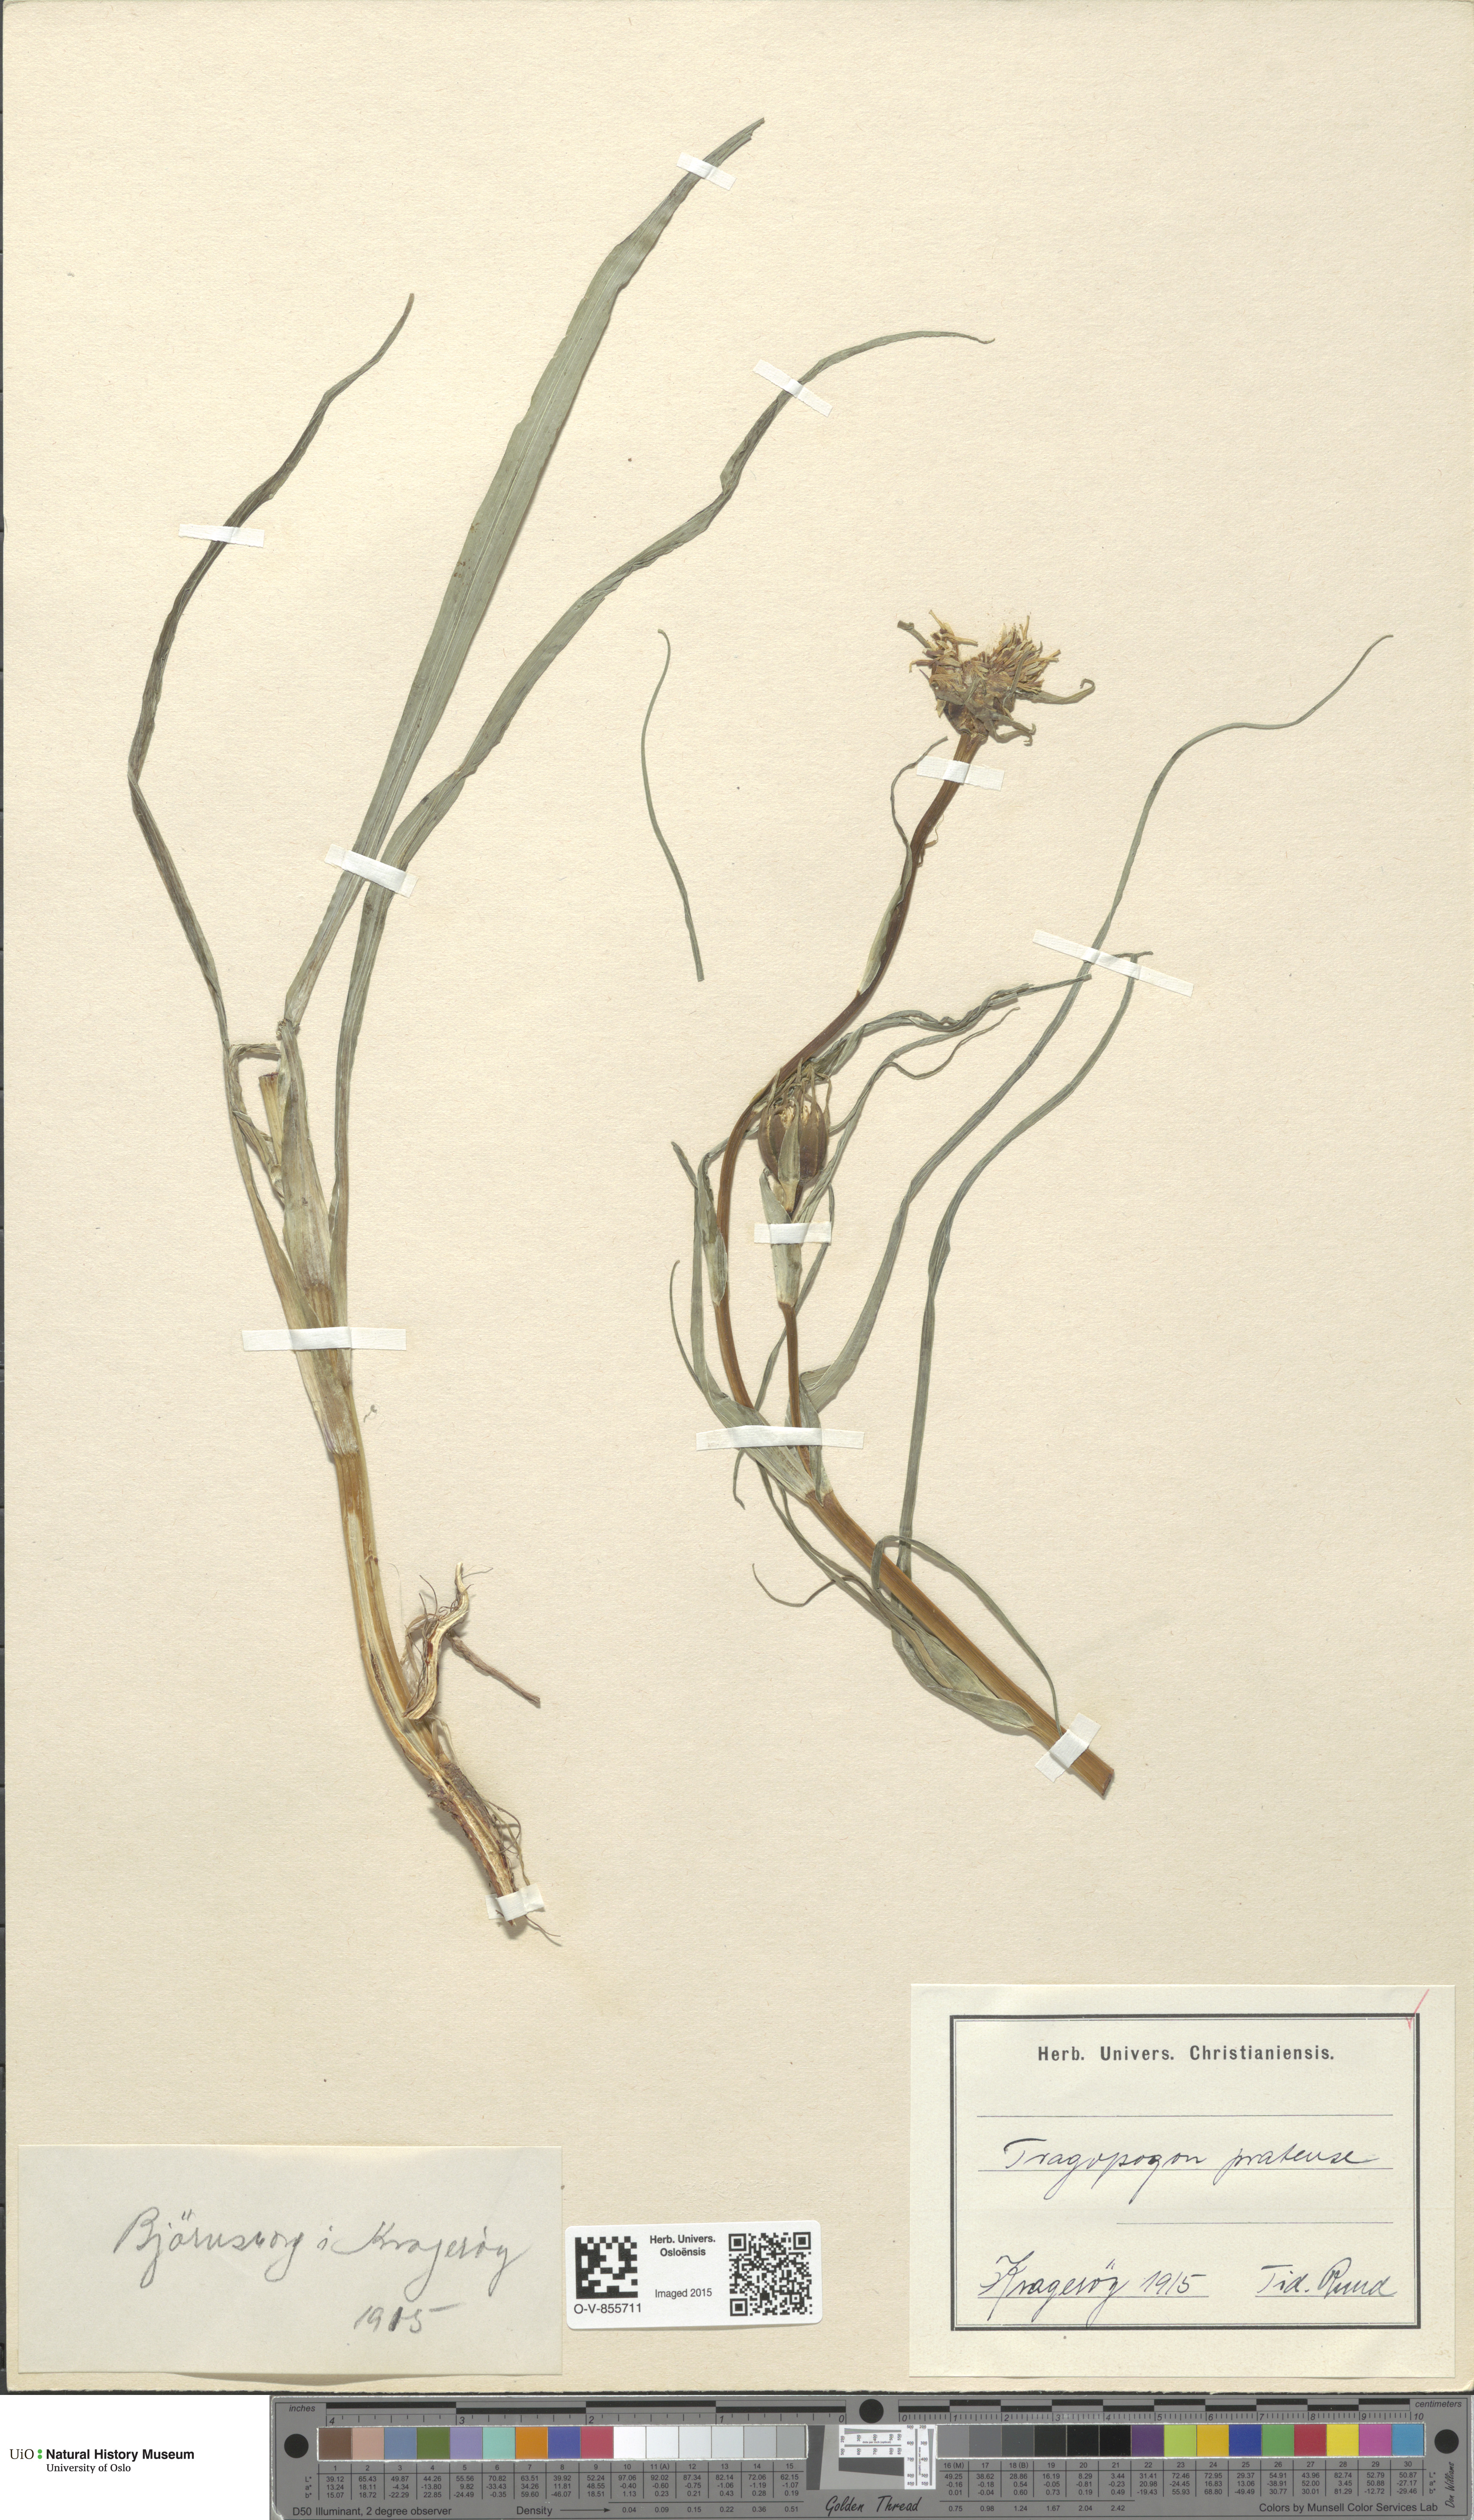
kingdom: Plantae
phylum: Tracheophyta
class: Magnoliopsida
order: Asterales
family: Asteraceae
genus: Tragopogon
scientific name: Tragopogon pratensis
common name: Goat's-beard
